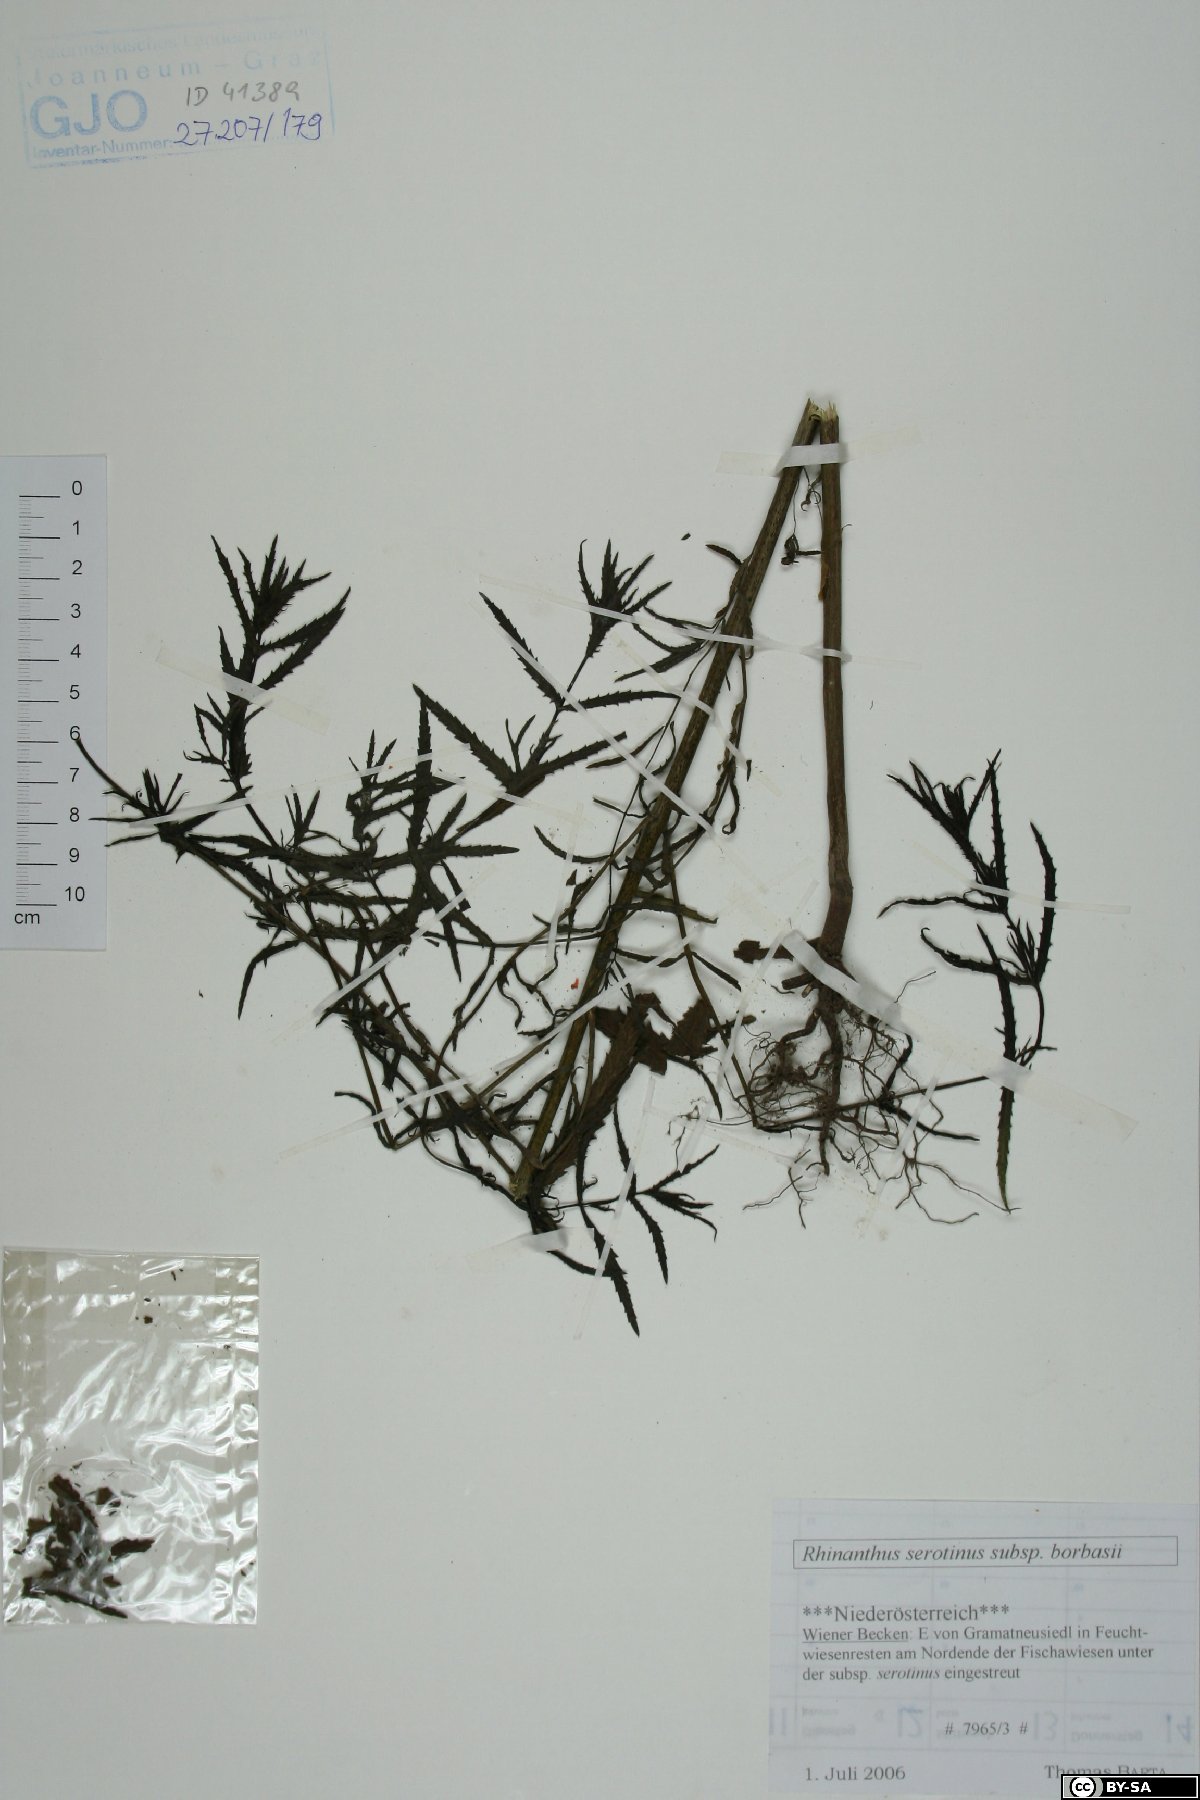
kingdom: Plantae
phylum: Tracheophyta
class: Magnoliopsida
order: Lamiales
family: Orobanchaceae
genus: Rhinanthus
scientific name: Rhinanthus serotinus
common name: Late-flowering yellow rattle
